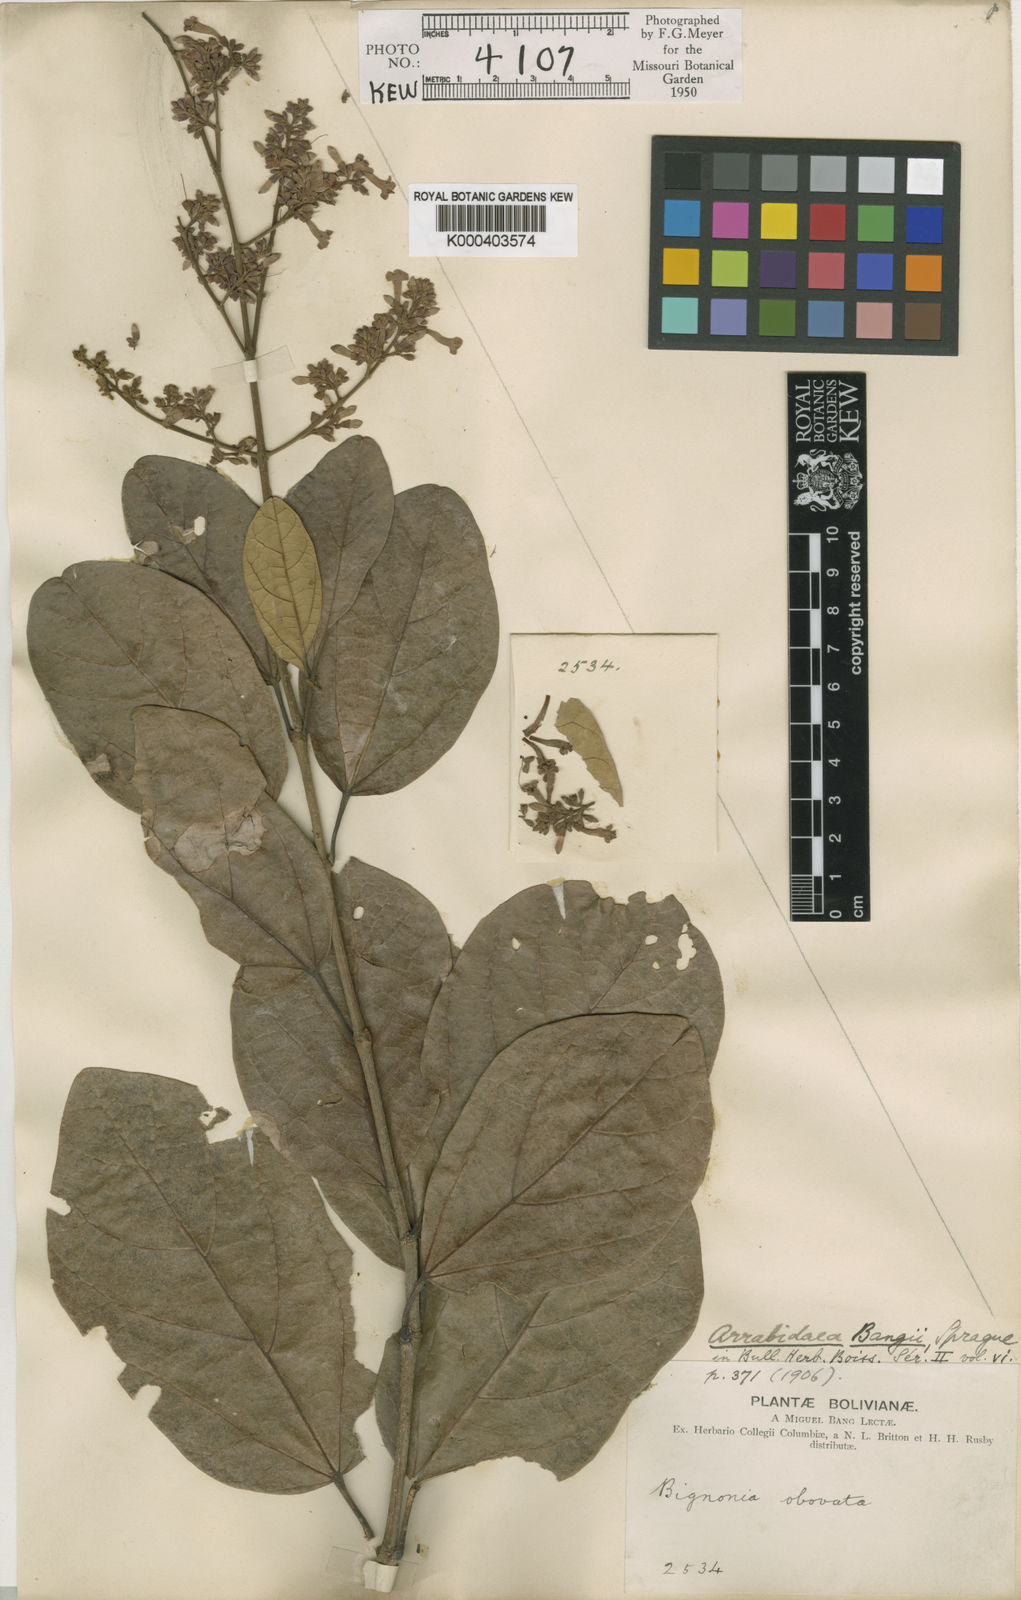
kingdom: Plantae
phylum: Tracheophyta
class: Magnoliopsida
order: Lamiales
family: Bignoniaceae
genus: Xylophragma
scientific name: Xylophragma platyphyllum
